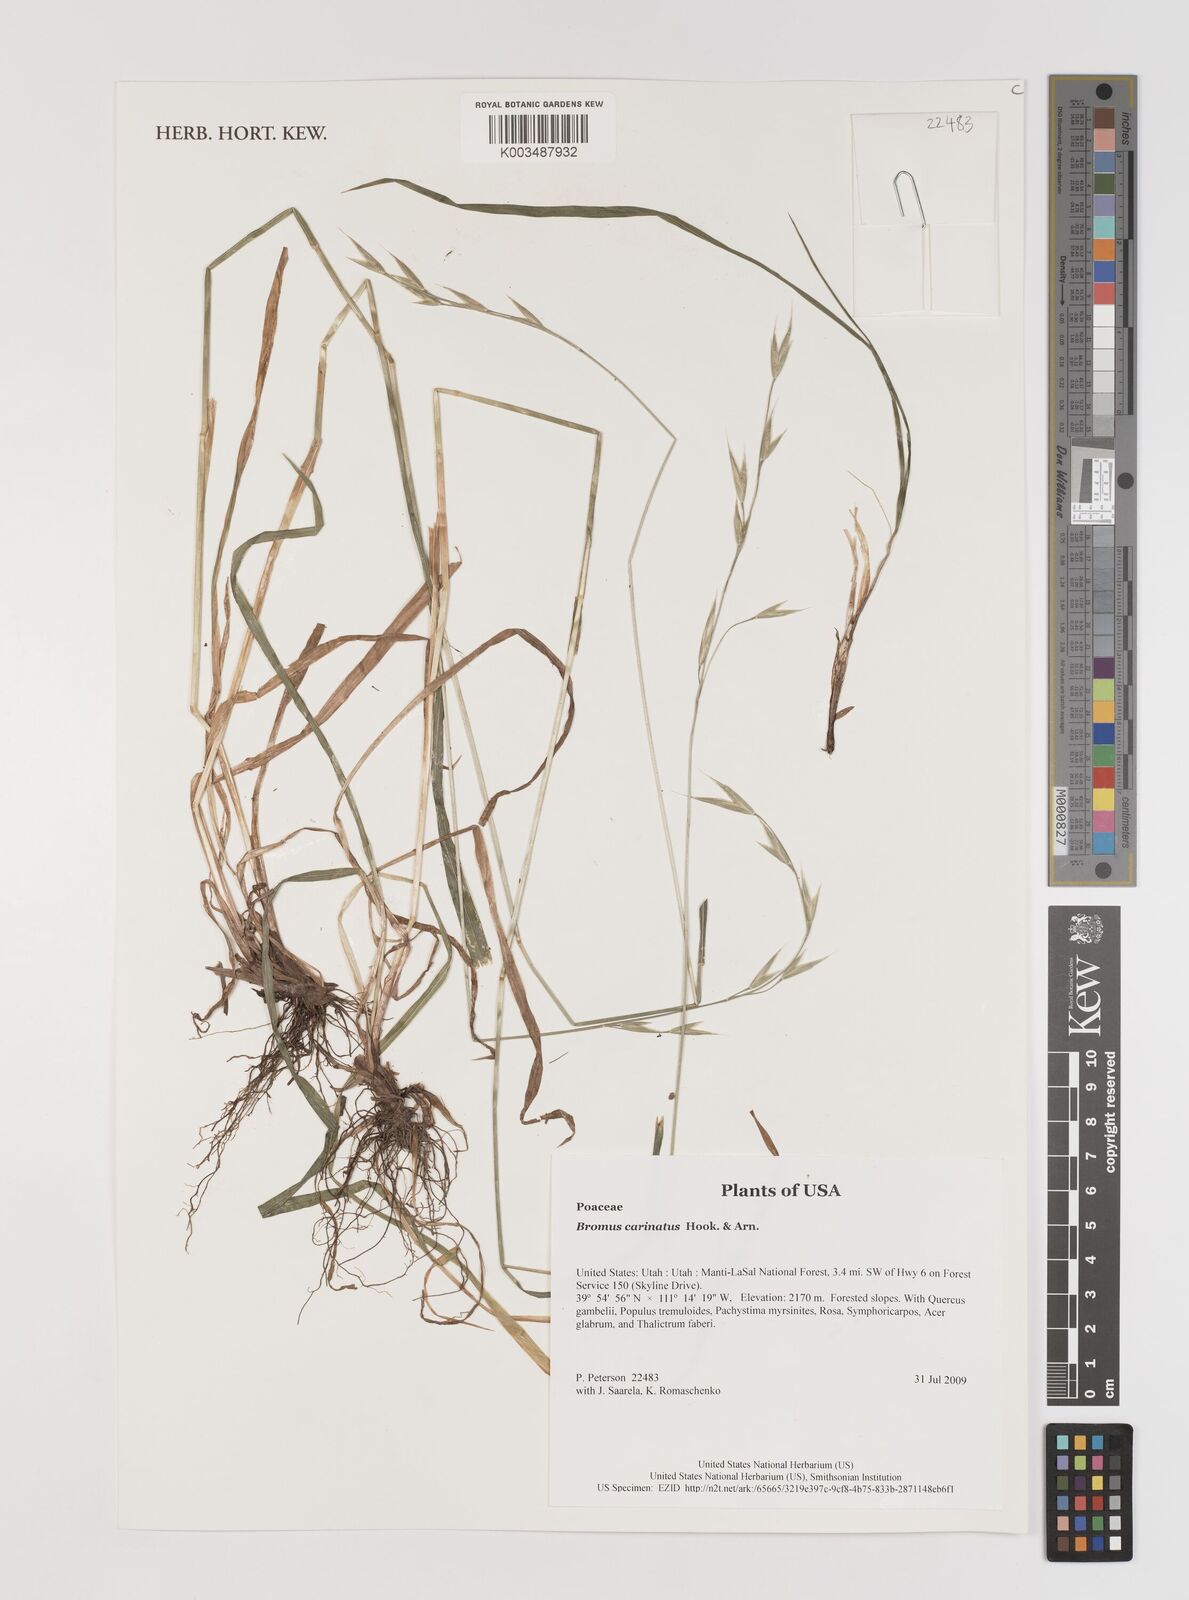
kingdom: Plantae
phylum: Tracheophyta
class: Liliopsida
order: Poales
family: Poaceae
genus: Bromus
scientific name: Bromus carinatus
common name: Mountain brome
